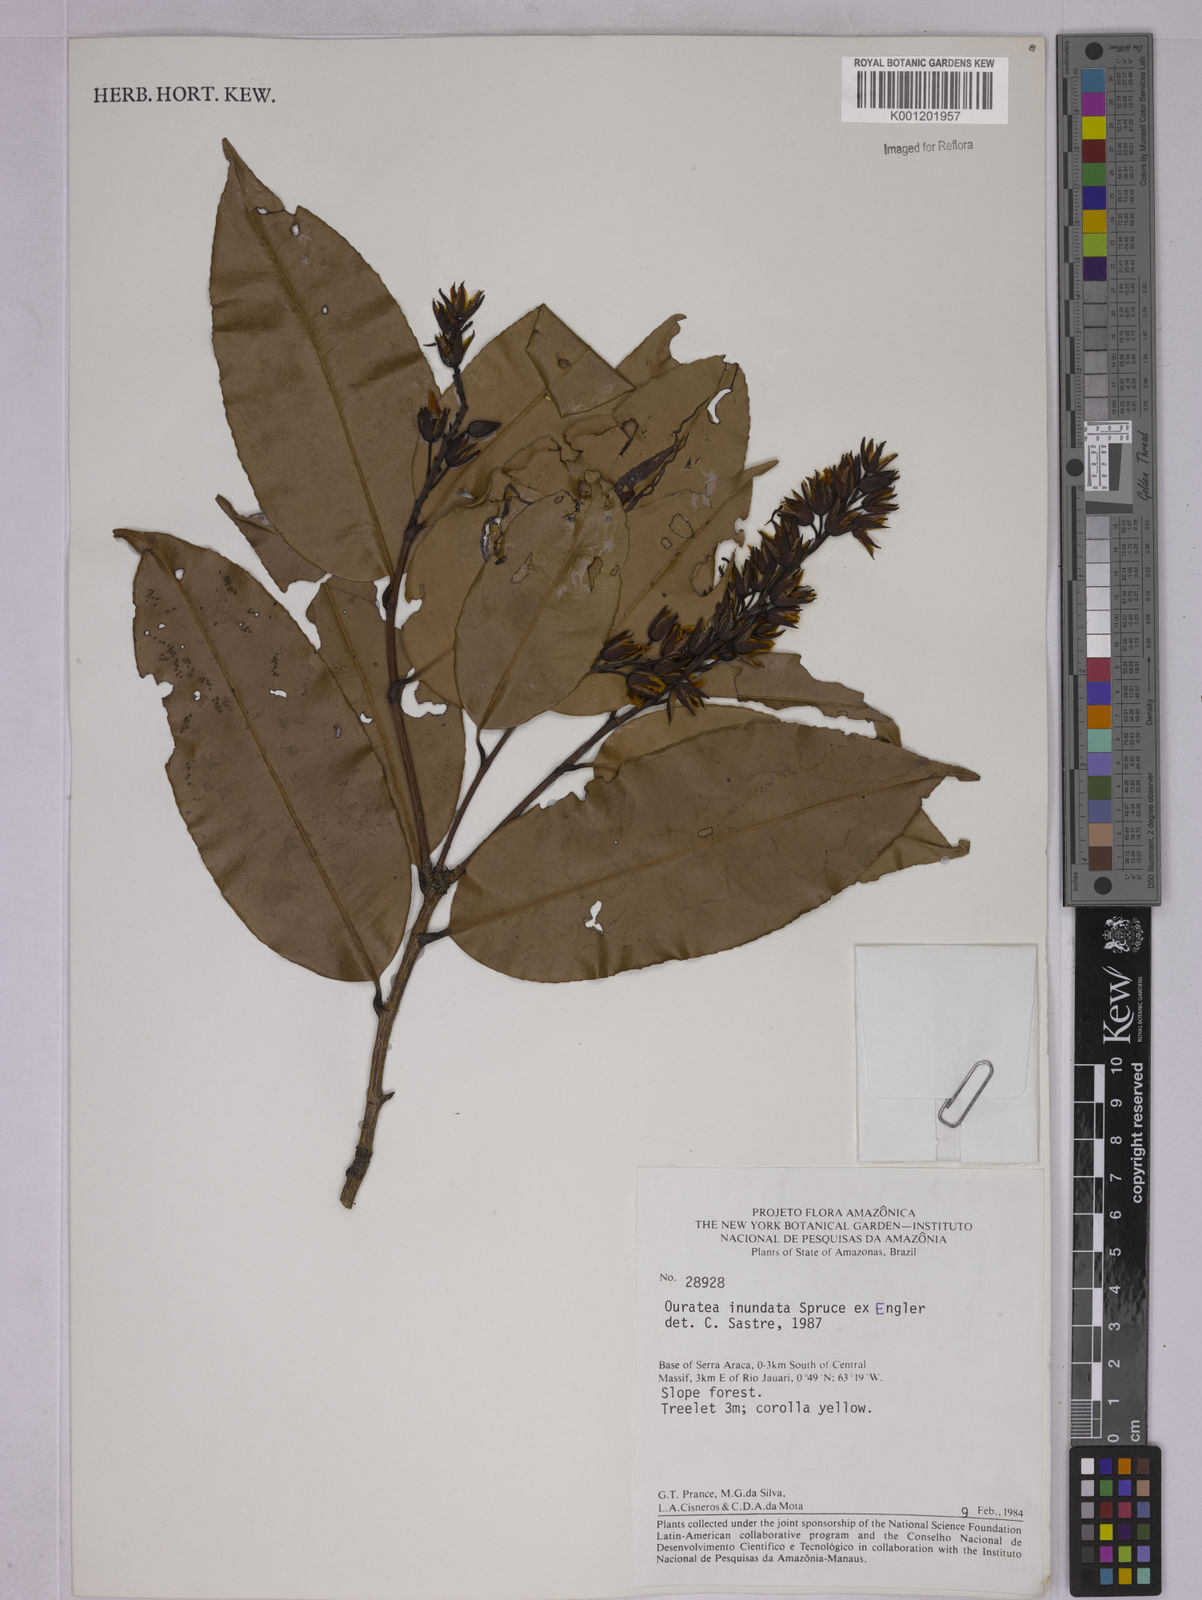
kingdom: Plantae
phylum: Tracheophyta
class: Magnoliopsida
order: Malpighiales
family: Ochnaceae
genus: Ouratea
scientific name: Ouratea inundata
